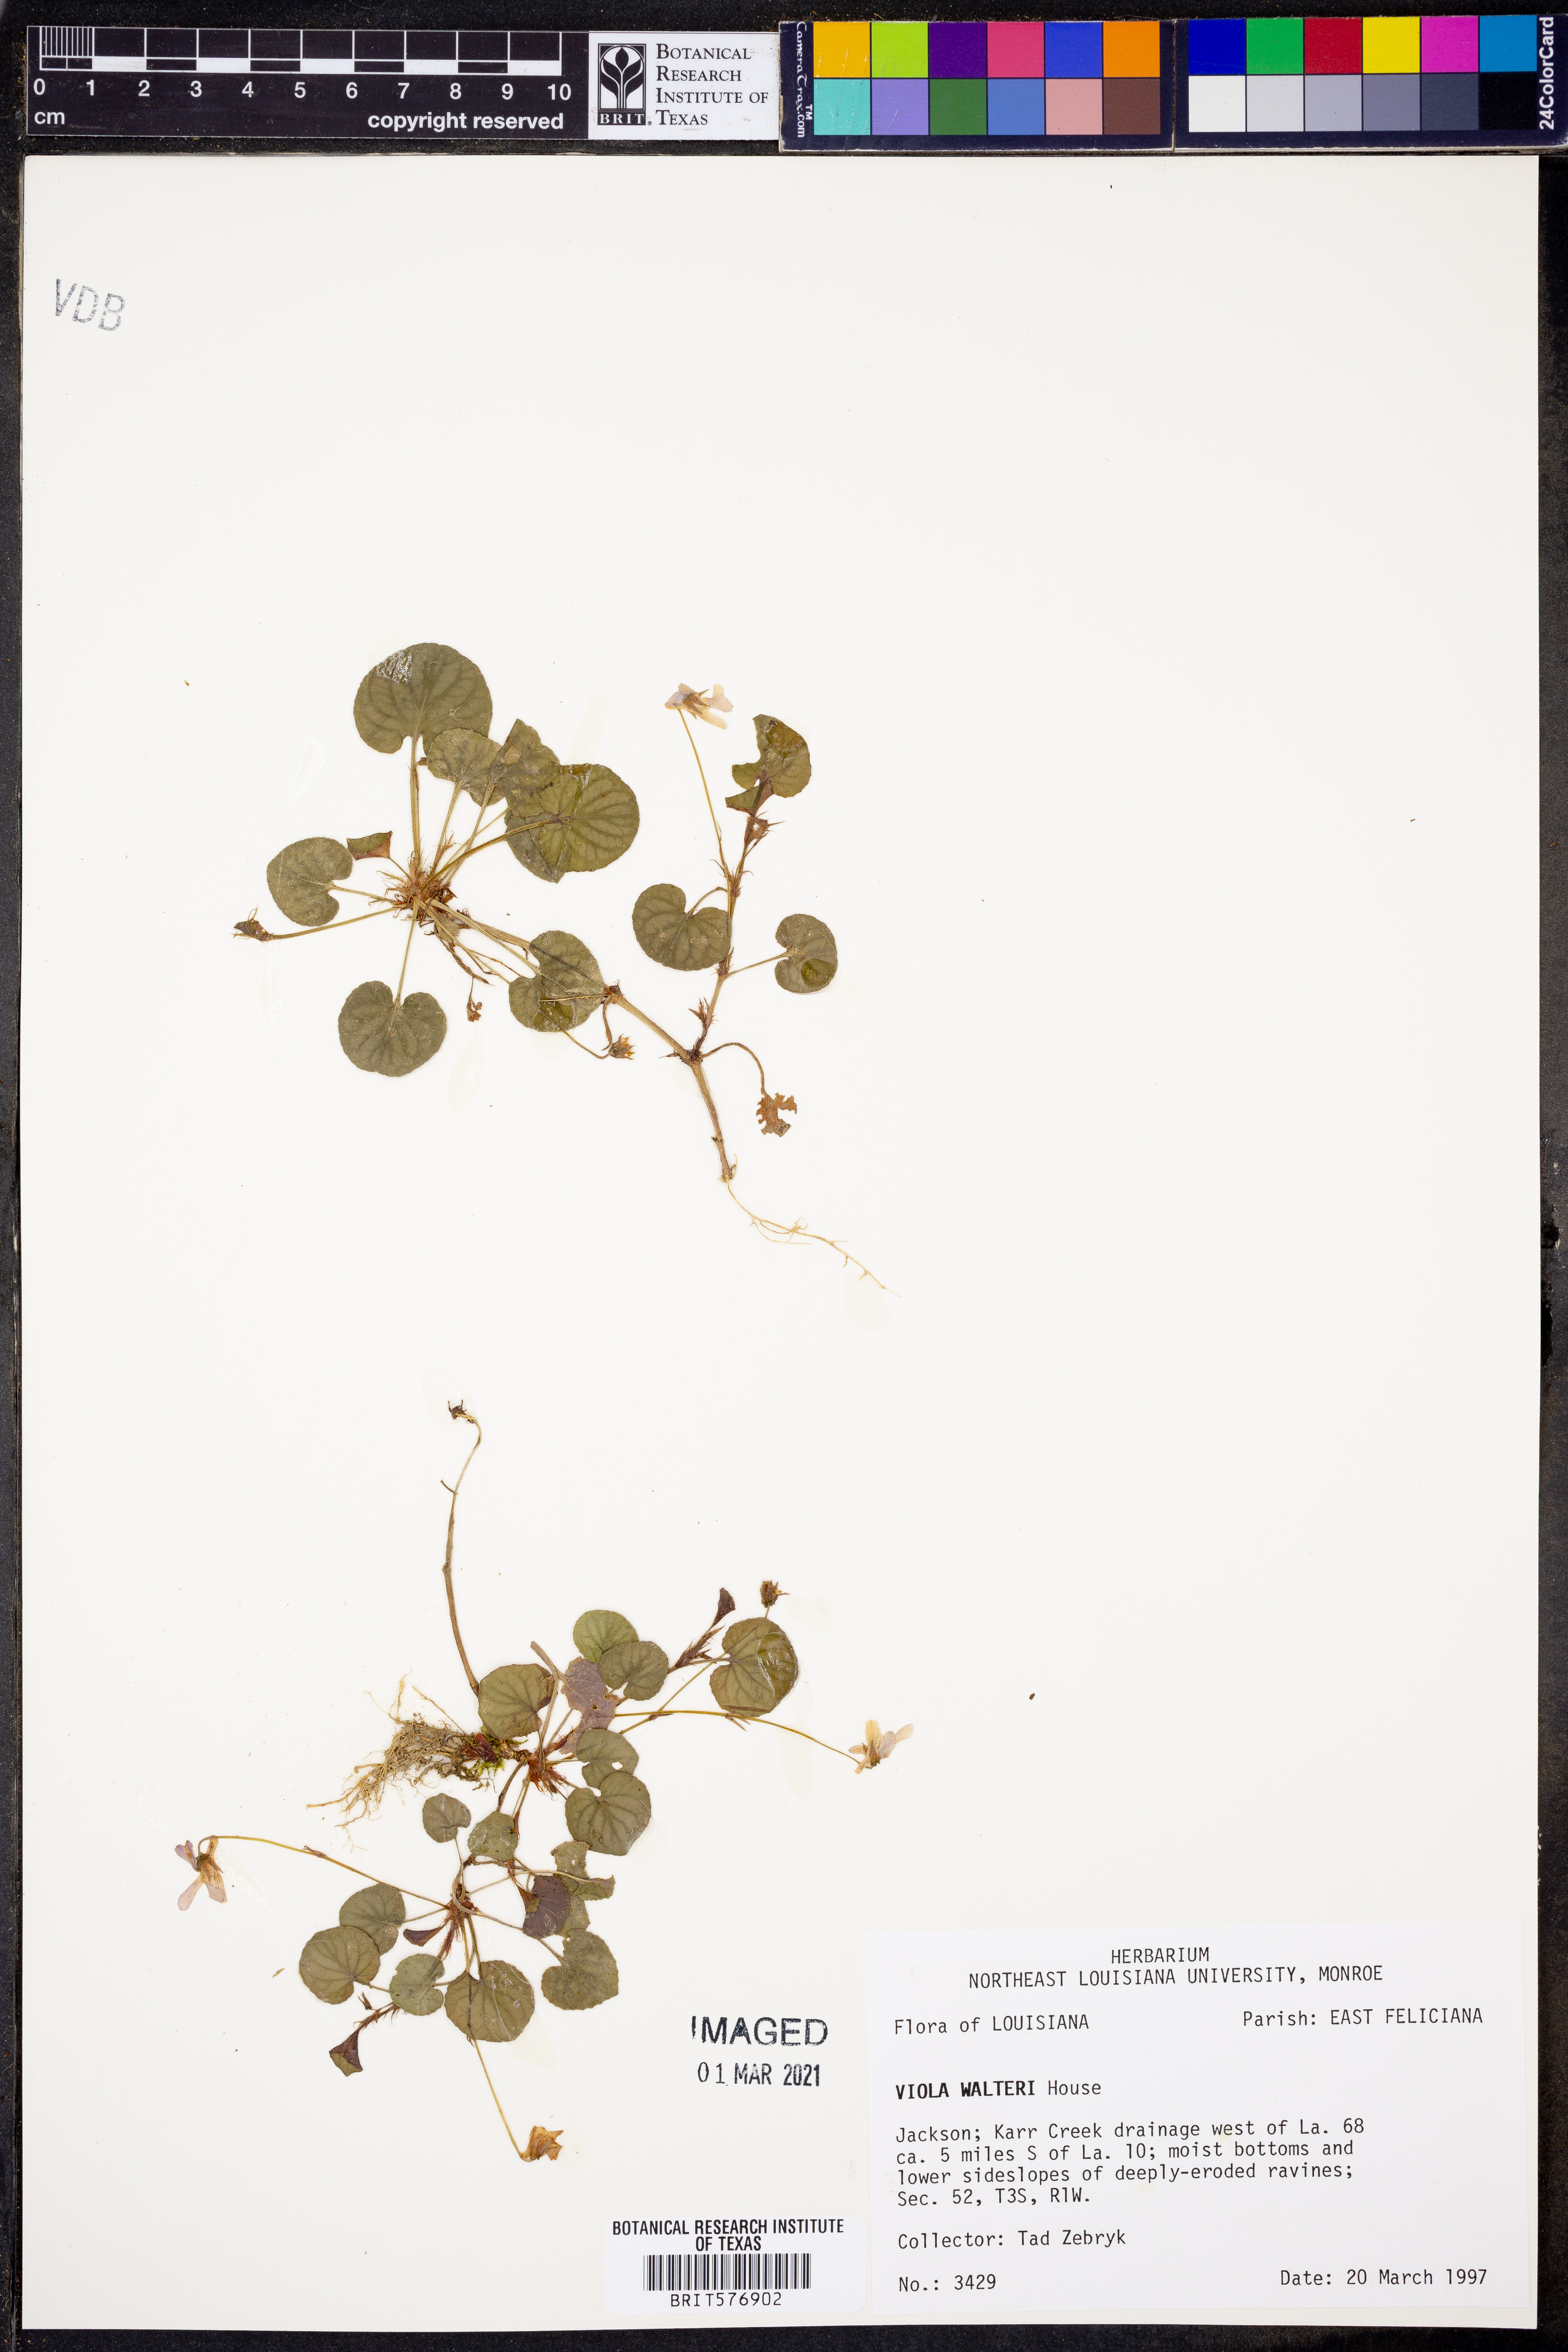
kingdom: Plantae
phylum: Tracheophyta
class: Magnoliopsida
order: Malpighiales
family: Violaceae
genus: Viola
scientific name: Viola walteri
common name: Prostrate southern violet
